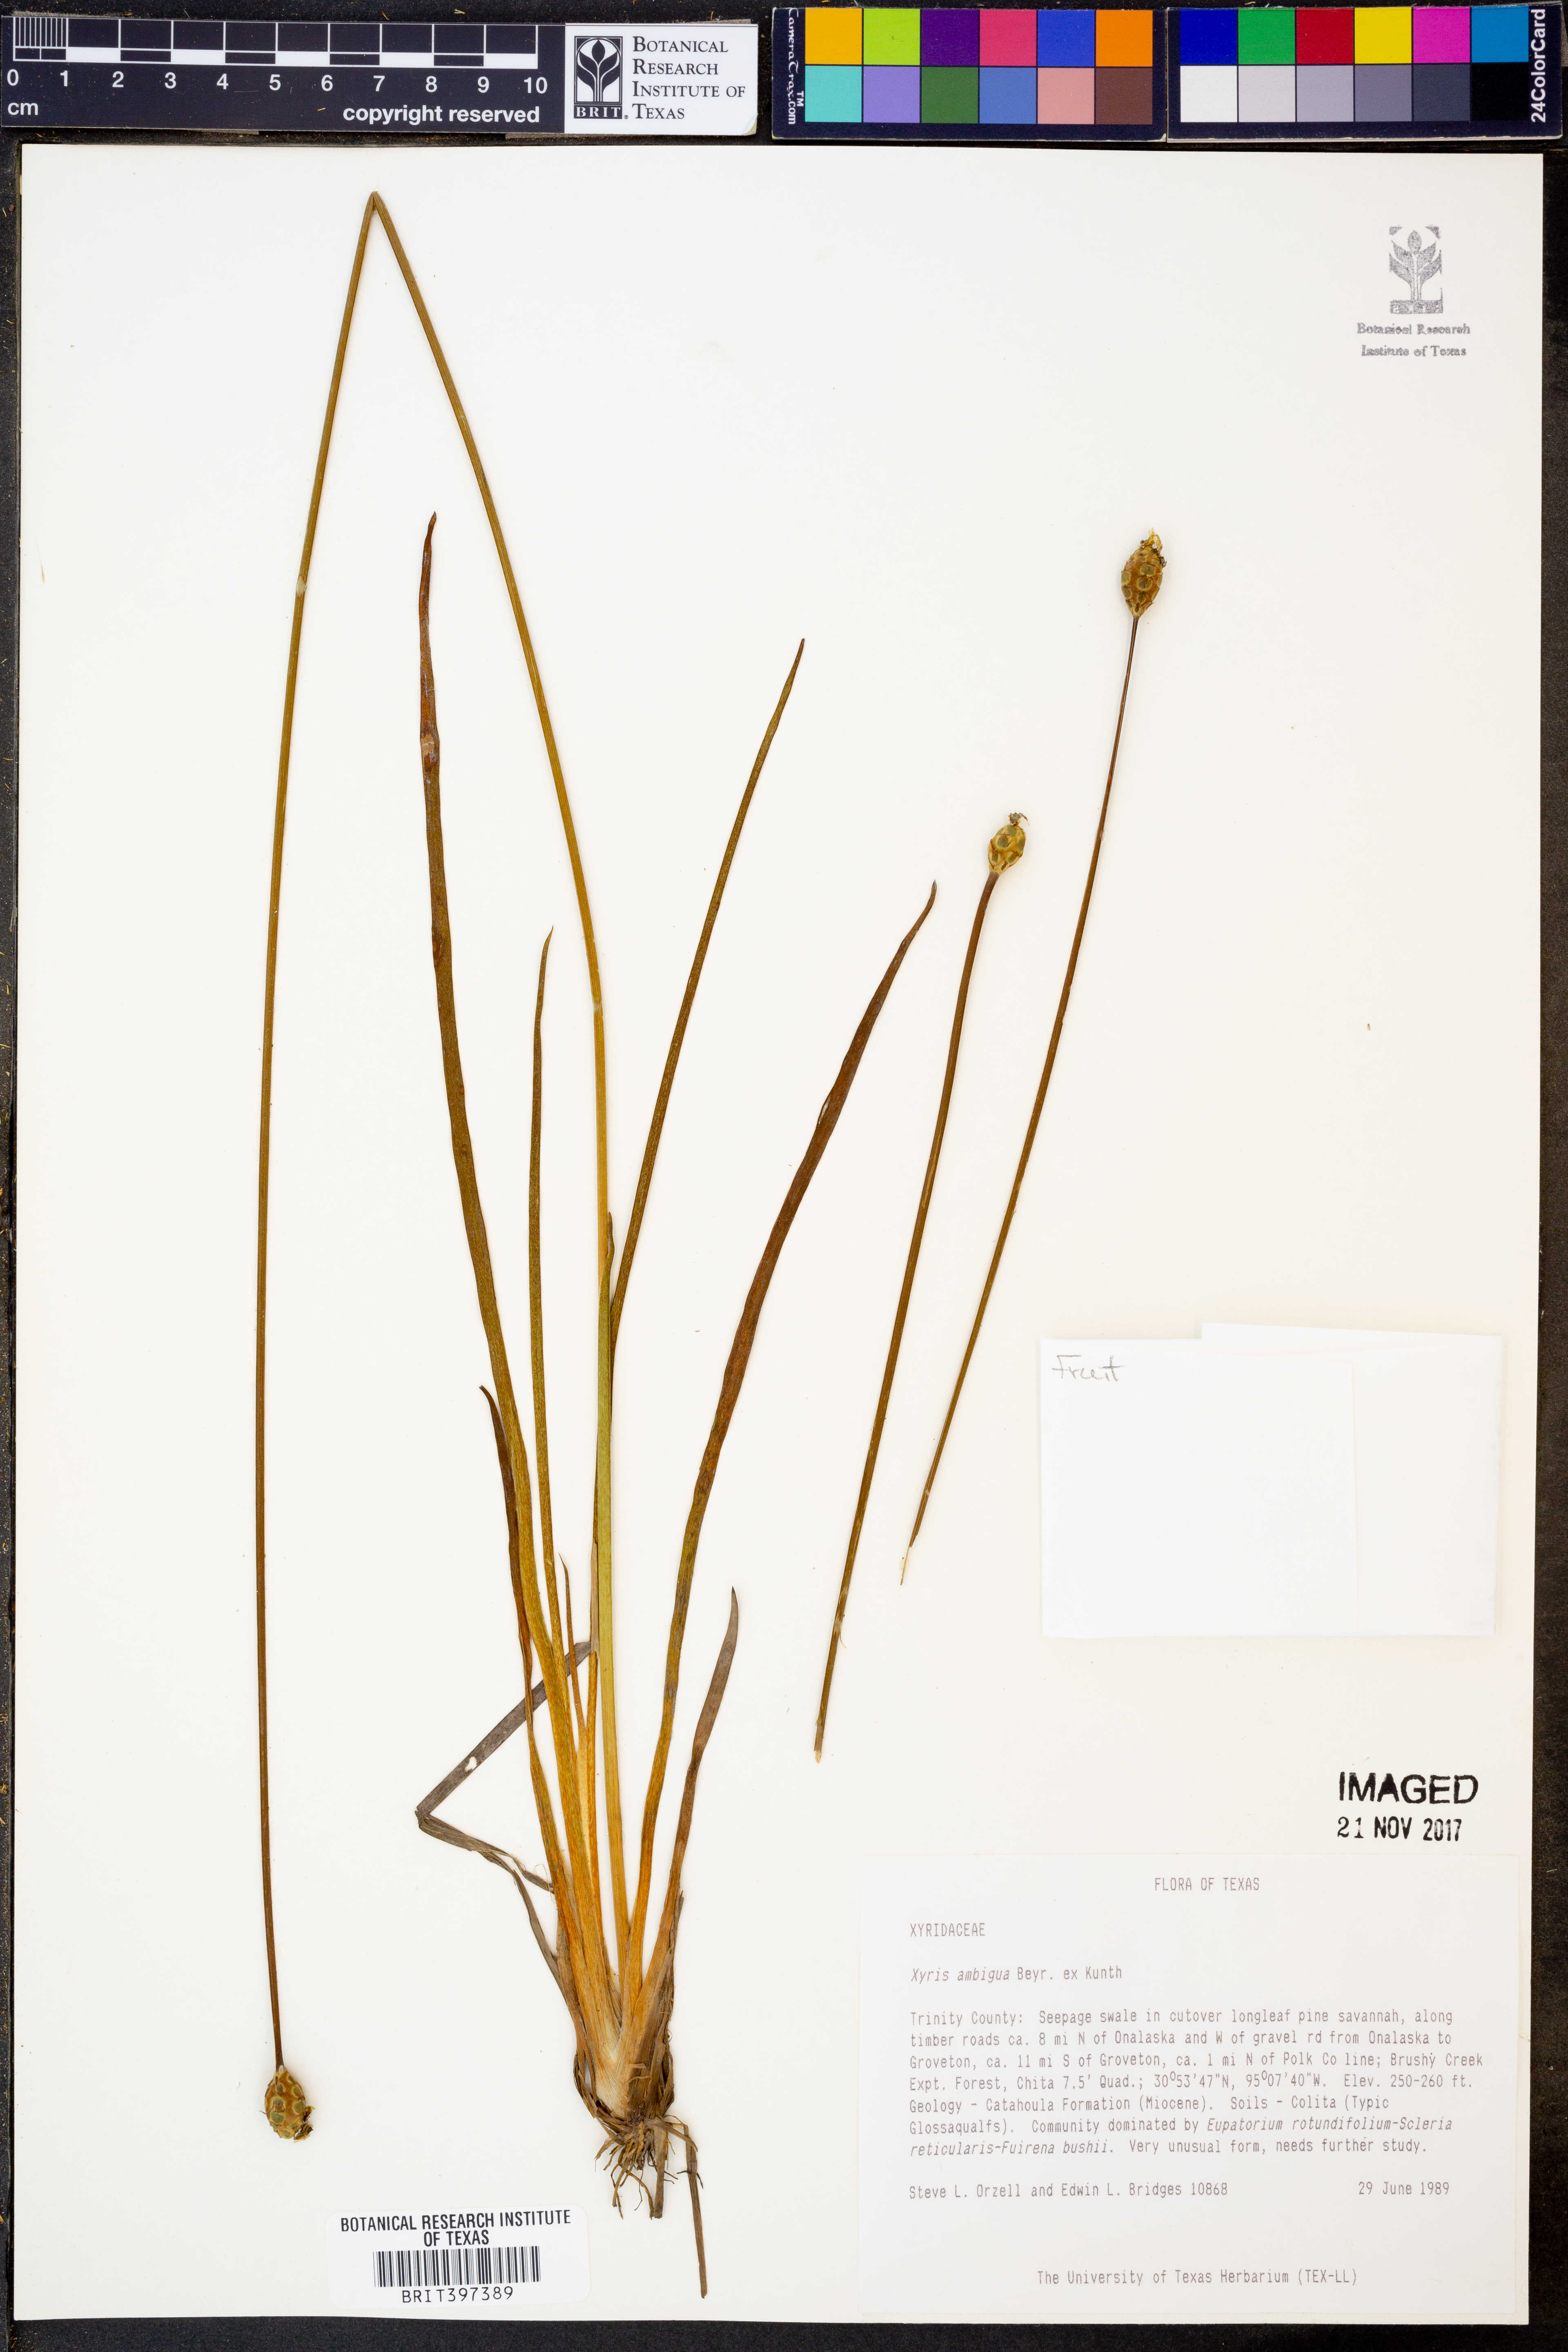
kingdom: Plantae
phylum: Tracheophyta
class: Liliopsida
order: Poales
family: Xyridaceae
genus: Xyris
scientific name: Xyris ambigua
